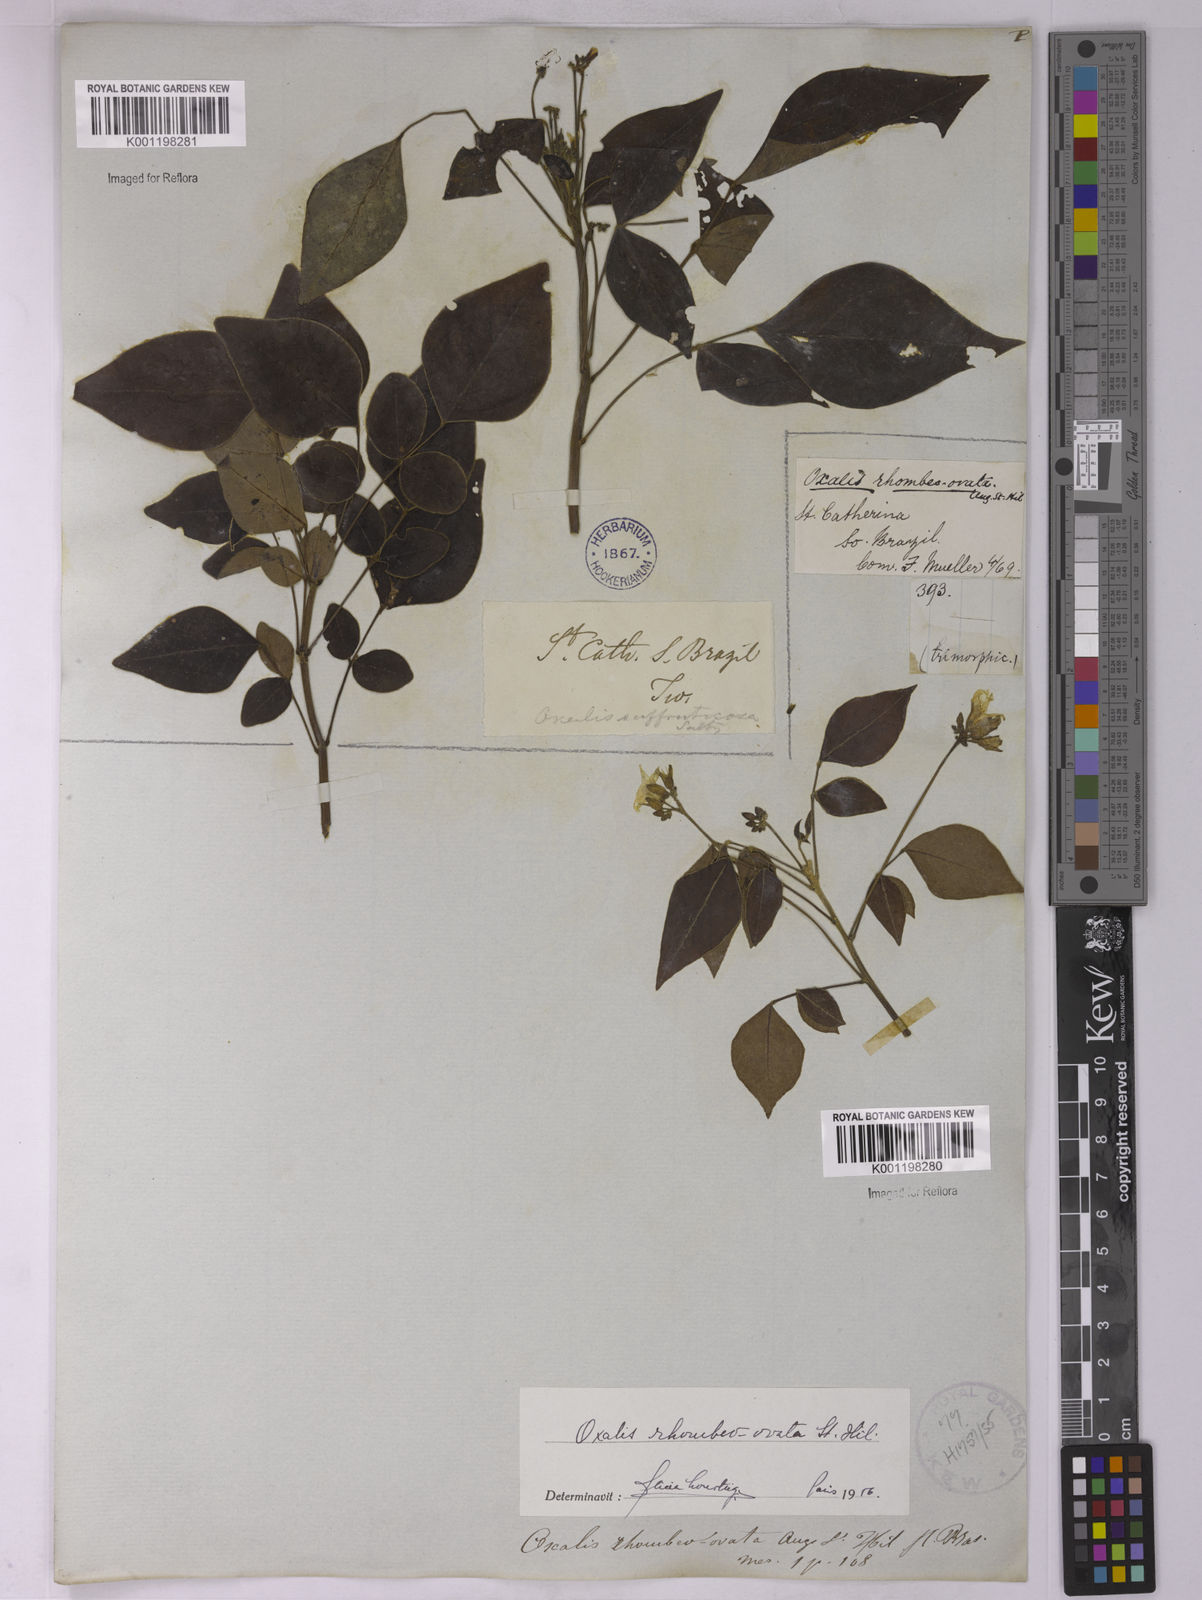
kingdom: Plantae
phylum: Tracheophyta
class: Magnoliopsida
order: Oxalidales
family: Oxalidaceae
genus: Oxalis
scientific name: Oxalis rhombeo-ovata
